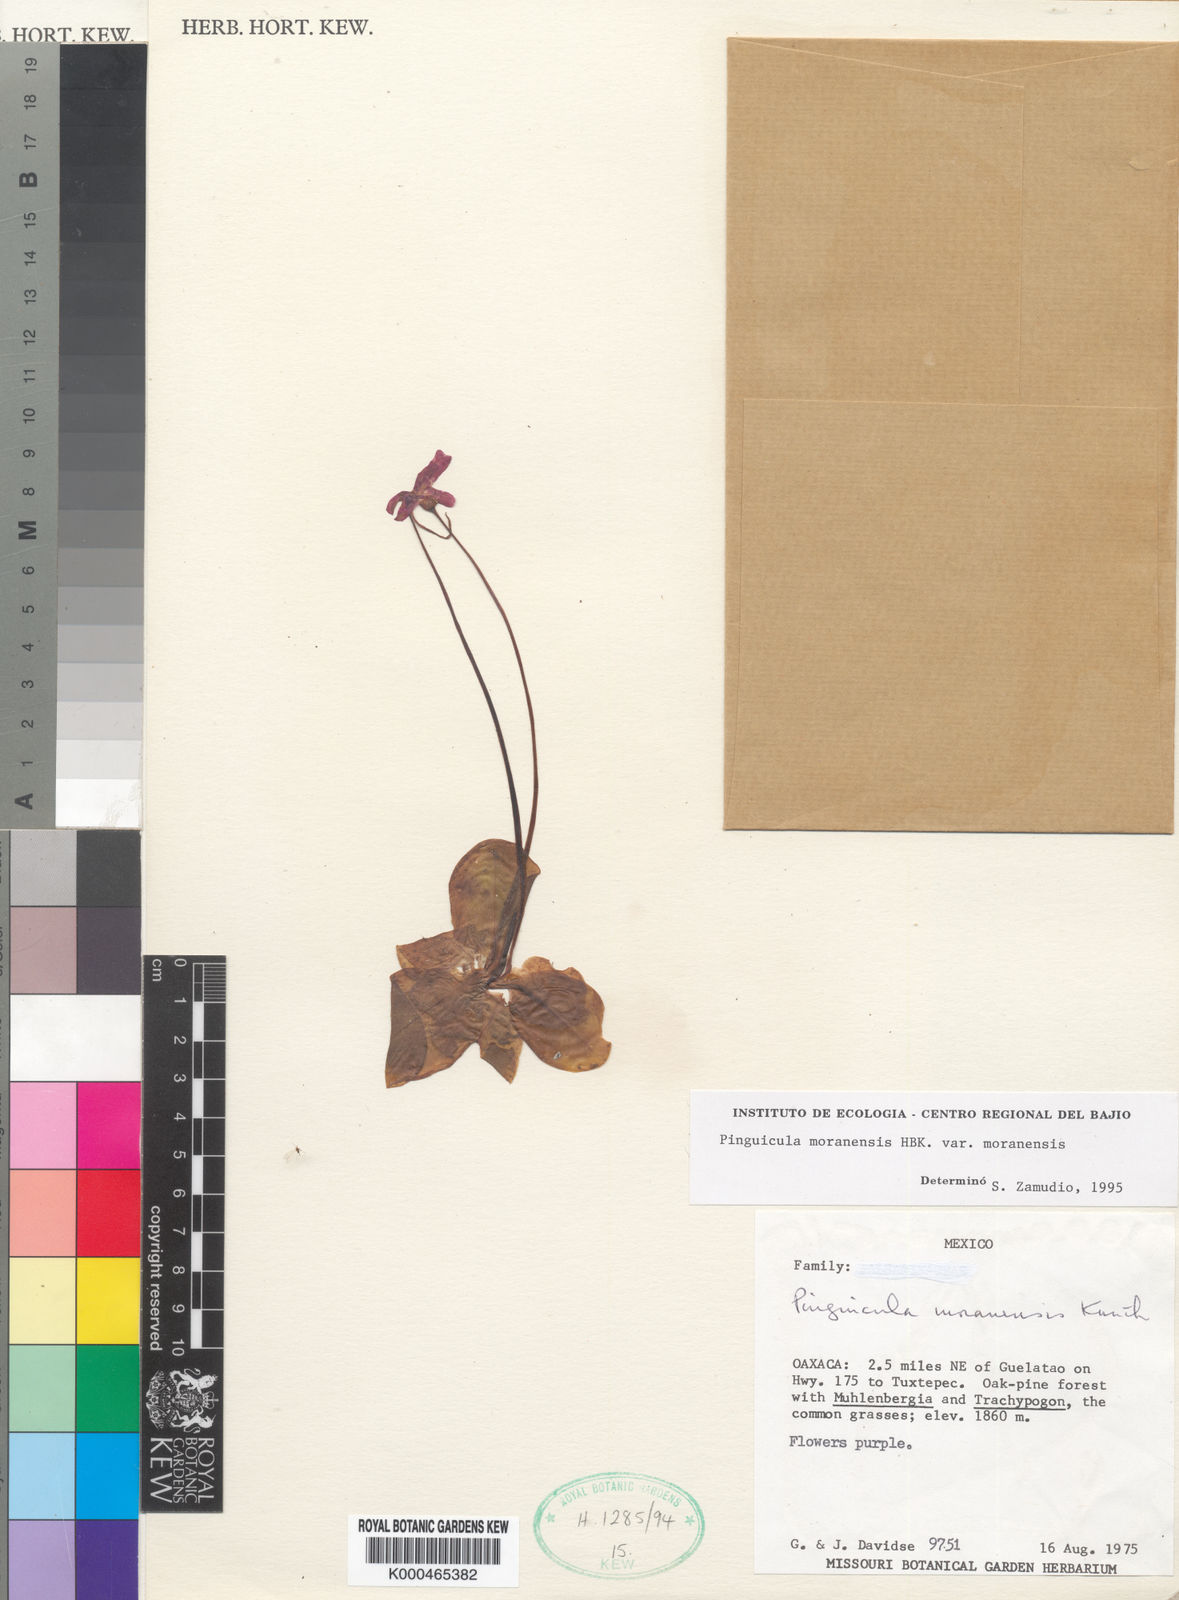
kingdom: Plantae
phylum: Tracheophyta
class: Magnoliopsida
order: Lamiales
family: Lentibulariaceae
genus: Pinguicula
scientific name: Pinguicula moranensis
